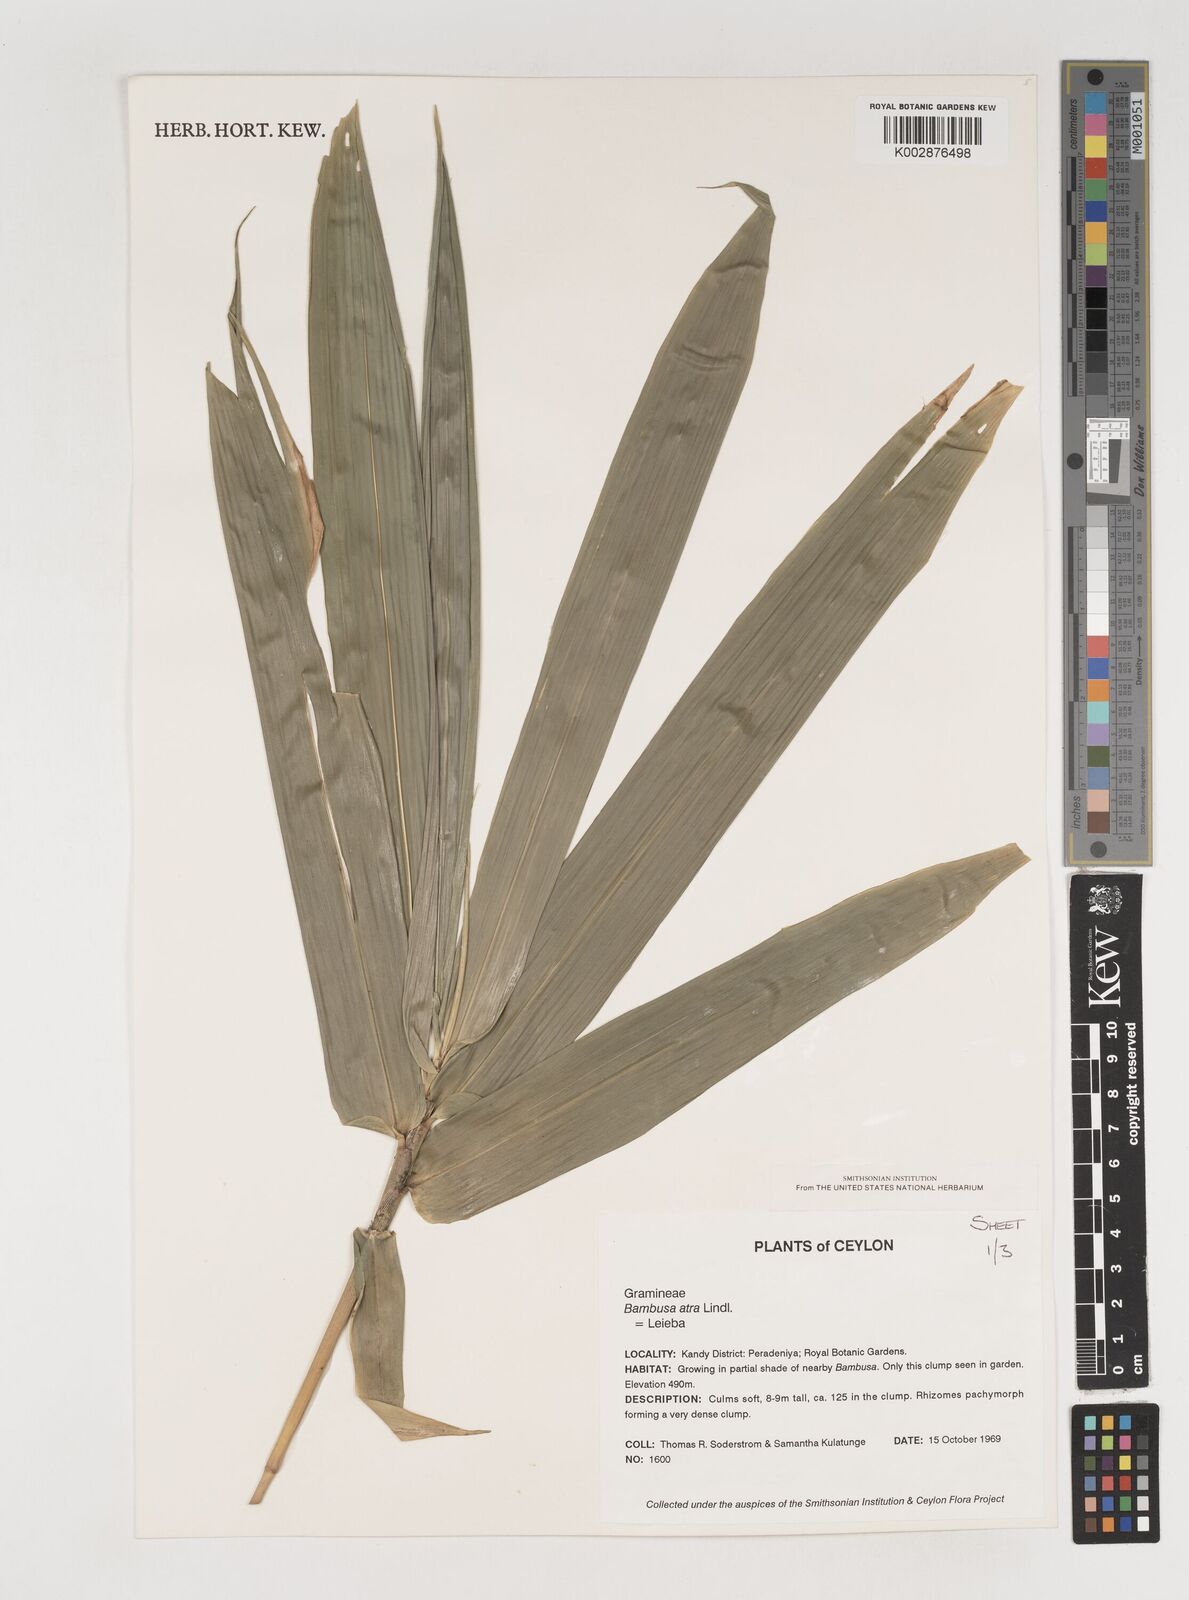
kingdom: Plantae
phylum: Tracheophyta
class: Liliopsida
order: Poales
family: Poaceae
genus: Bambusa
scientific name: Bambusa
